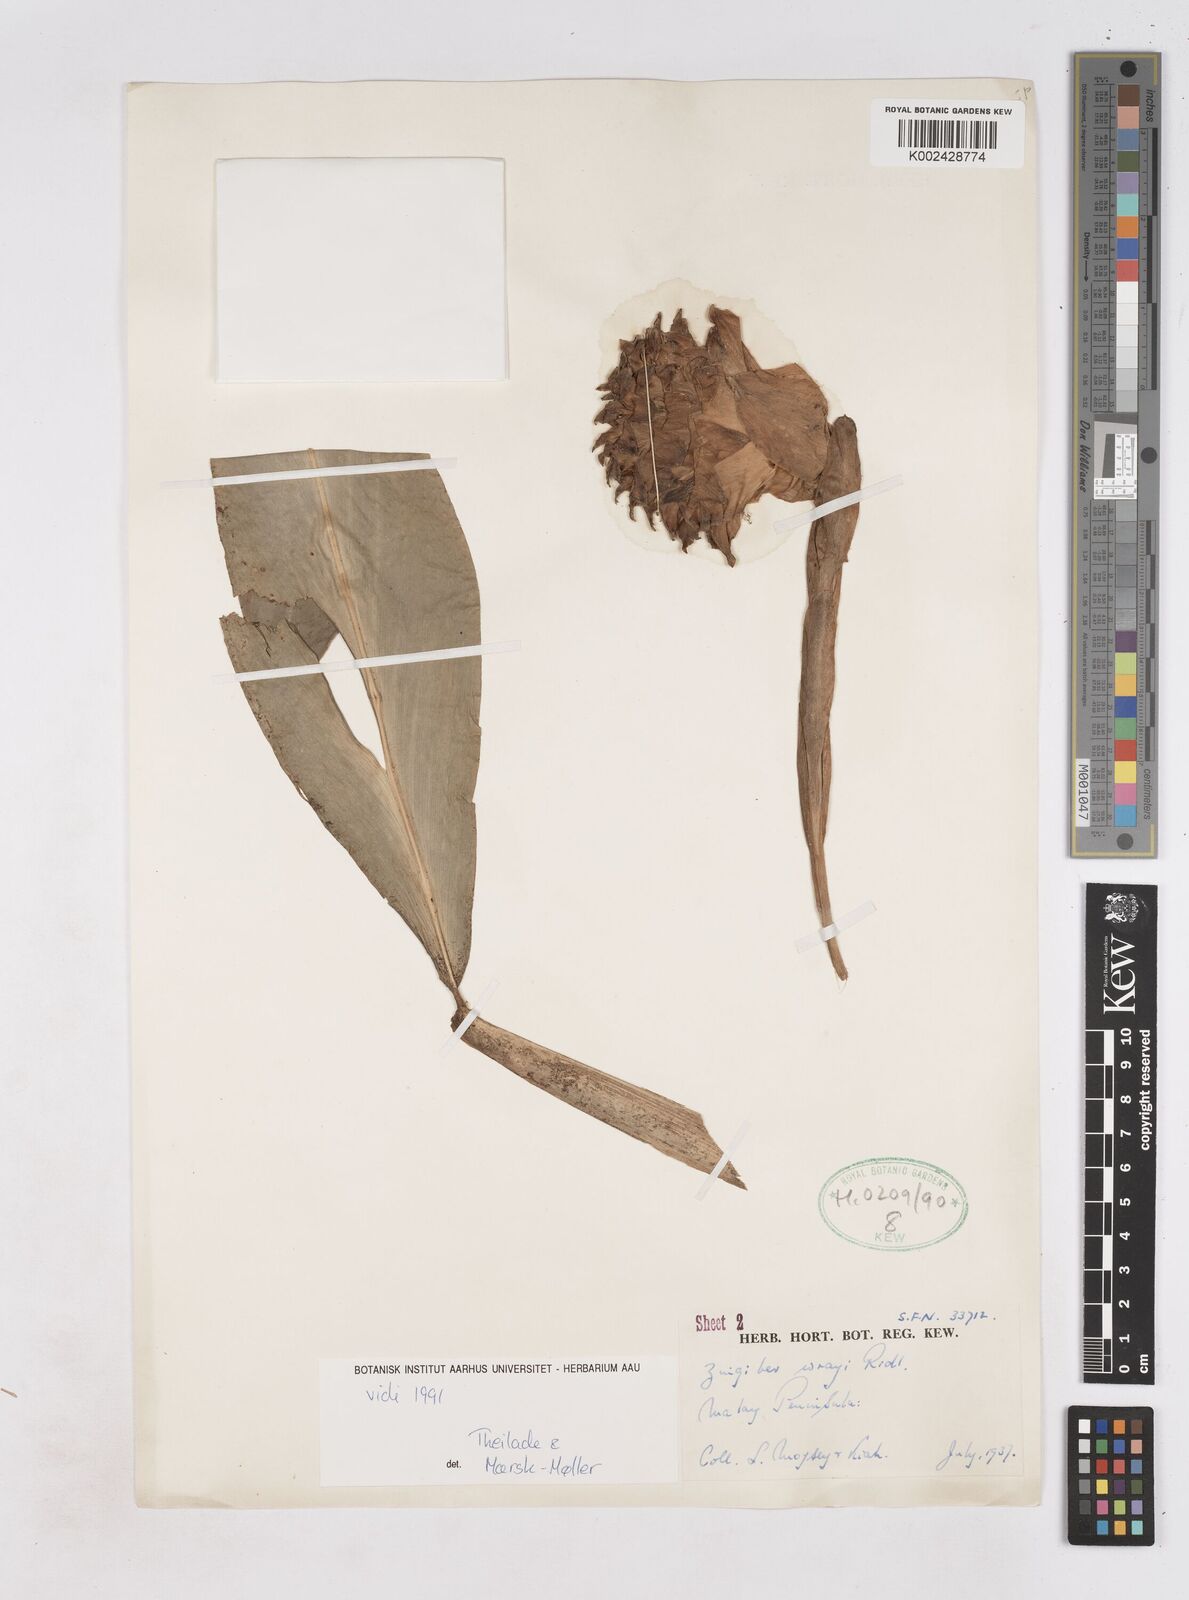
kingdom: Plantae
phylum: Tracheophyta
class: Liliopsida
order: Zingiberales
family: Zingiberaceae
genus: Zingiber
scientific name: Zingiber wrayi
